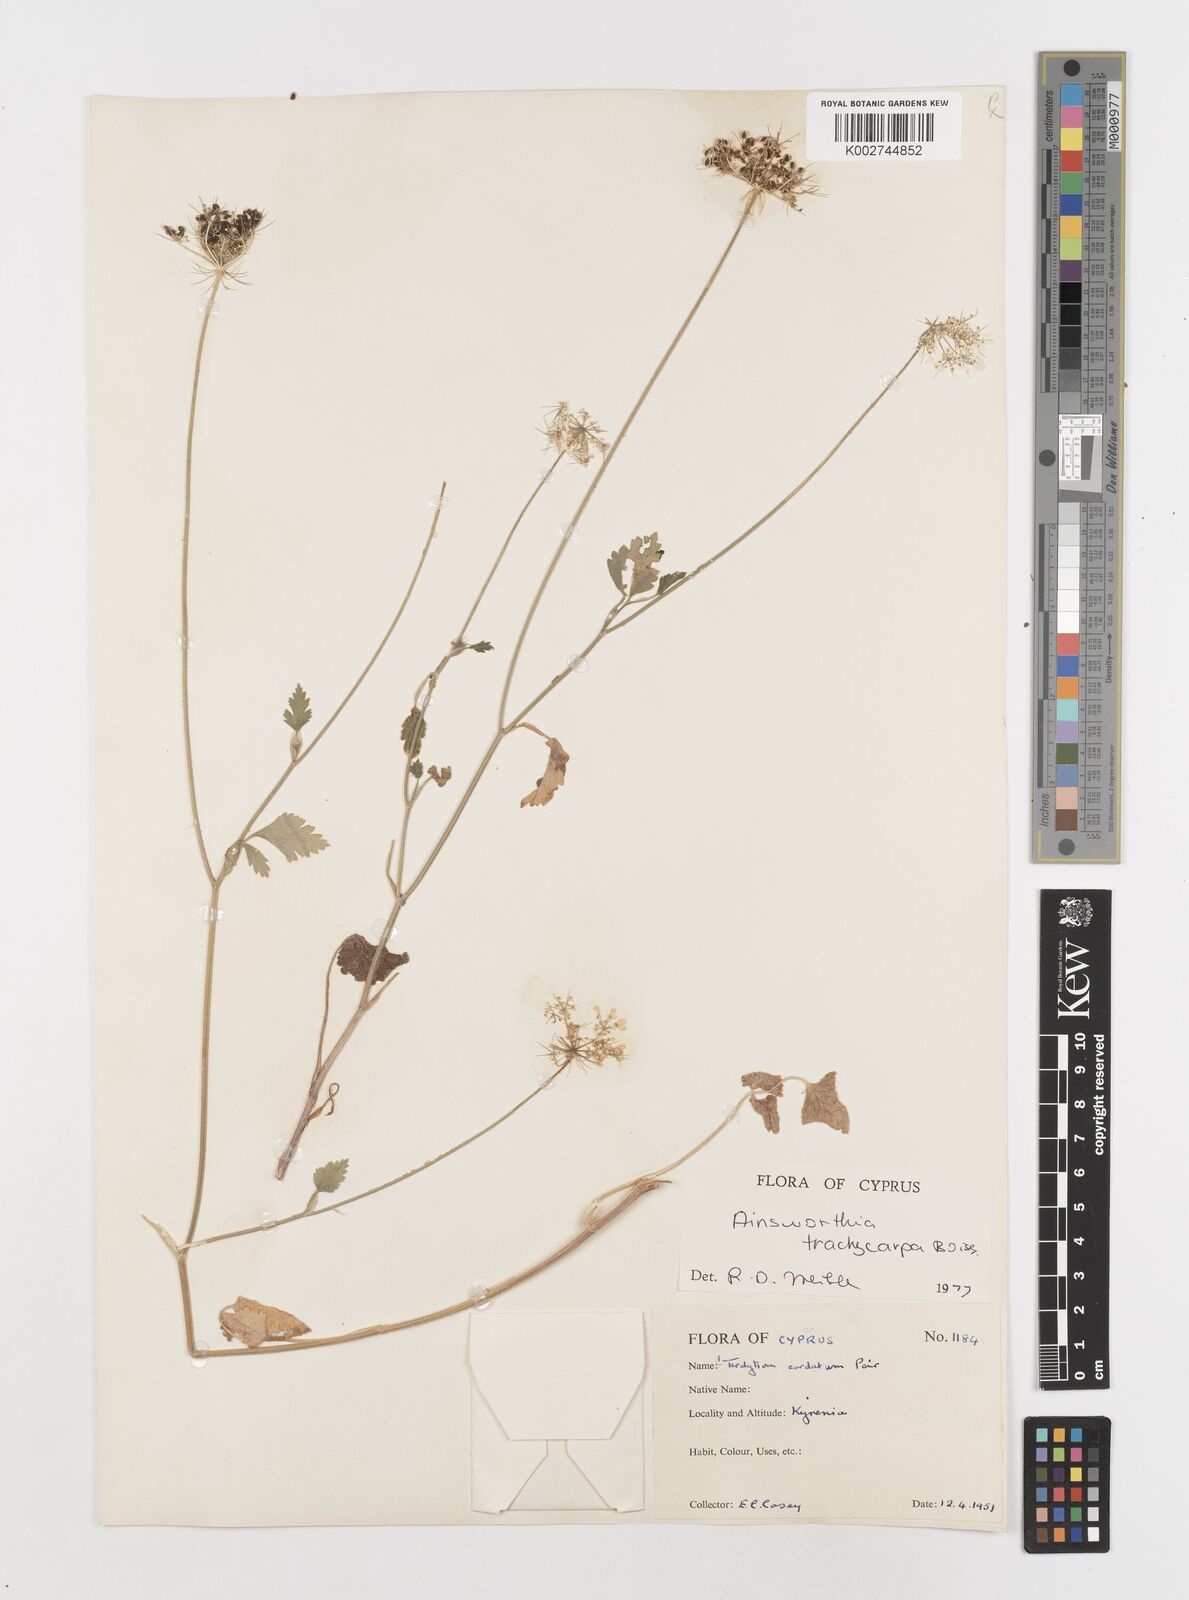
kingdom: Plantae
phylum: Tracheophyta
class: Magnoliopsida
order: Apiales
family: Apiaceae
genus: Ainsworthia
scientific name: Ainsworthia trachycarpa
